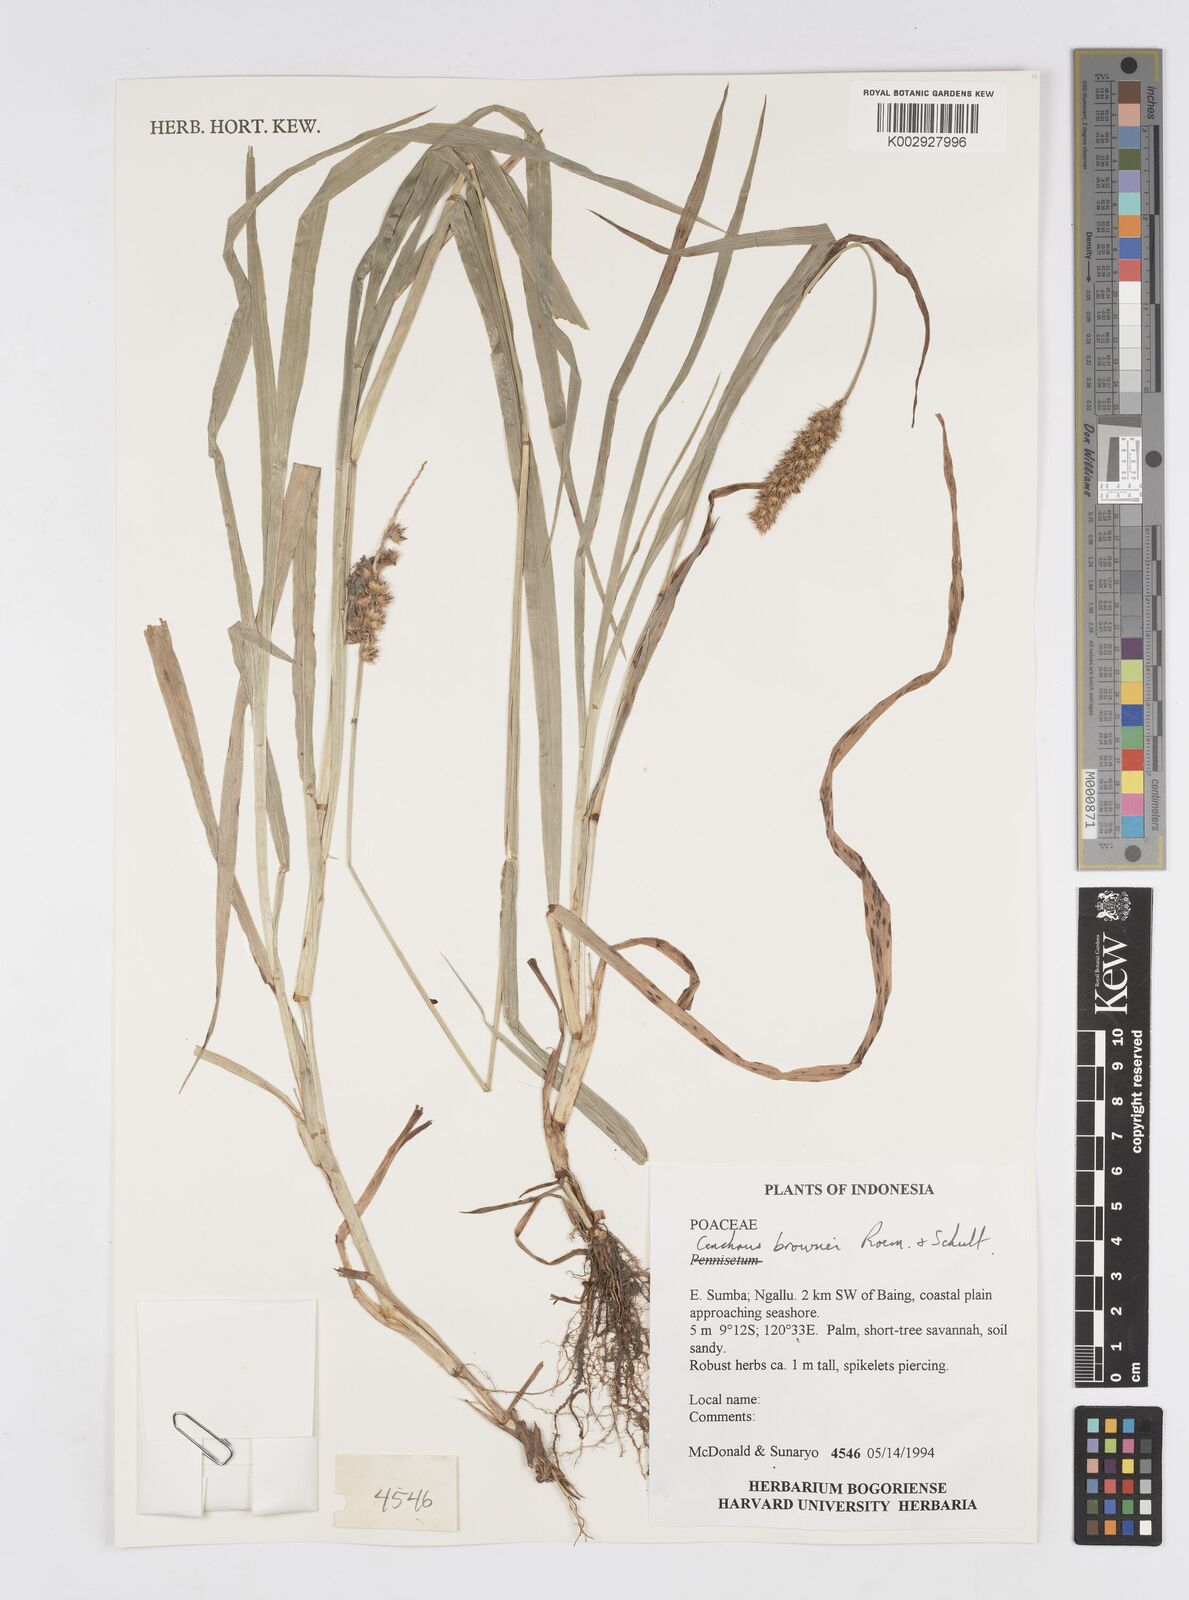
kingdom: Plantae
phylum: Tracheophyta
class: Liliopsida
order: Poales
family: Poaceae
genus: Cenchrus
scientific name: Cenchrus brownii
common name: Slim-bristle sandbur
